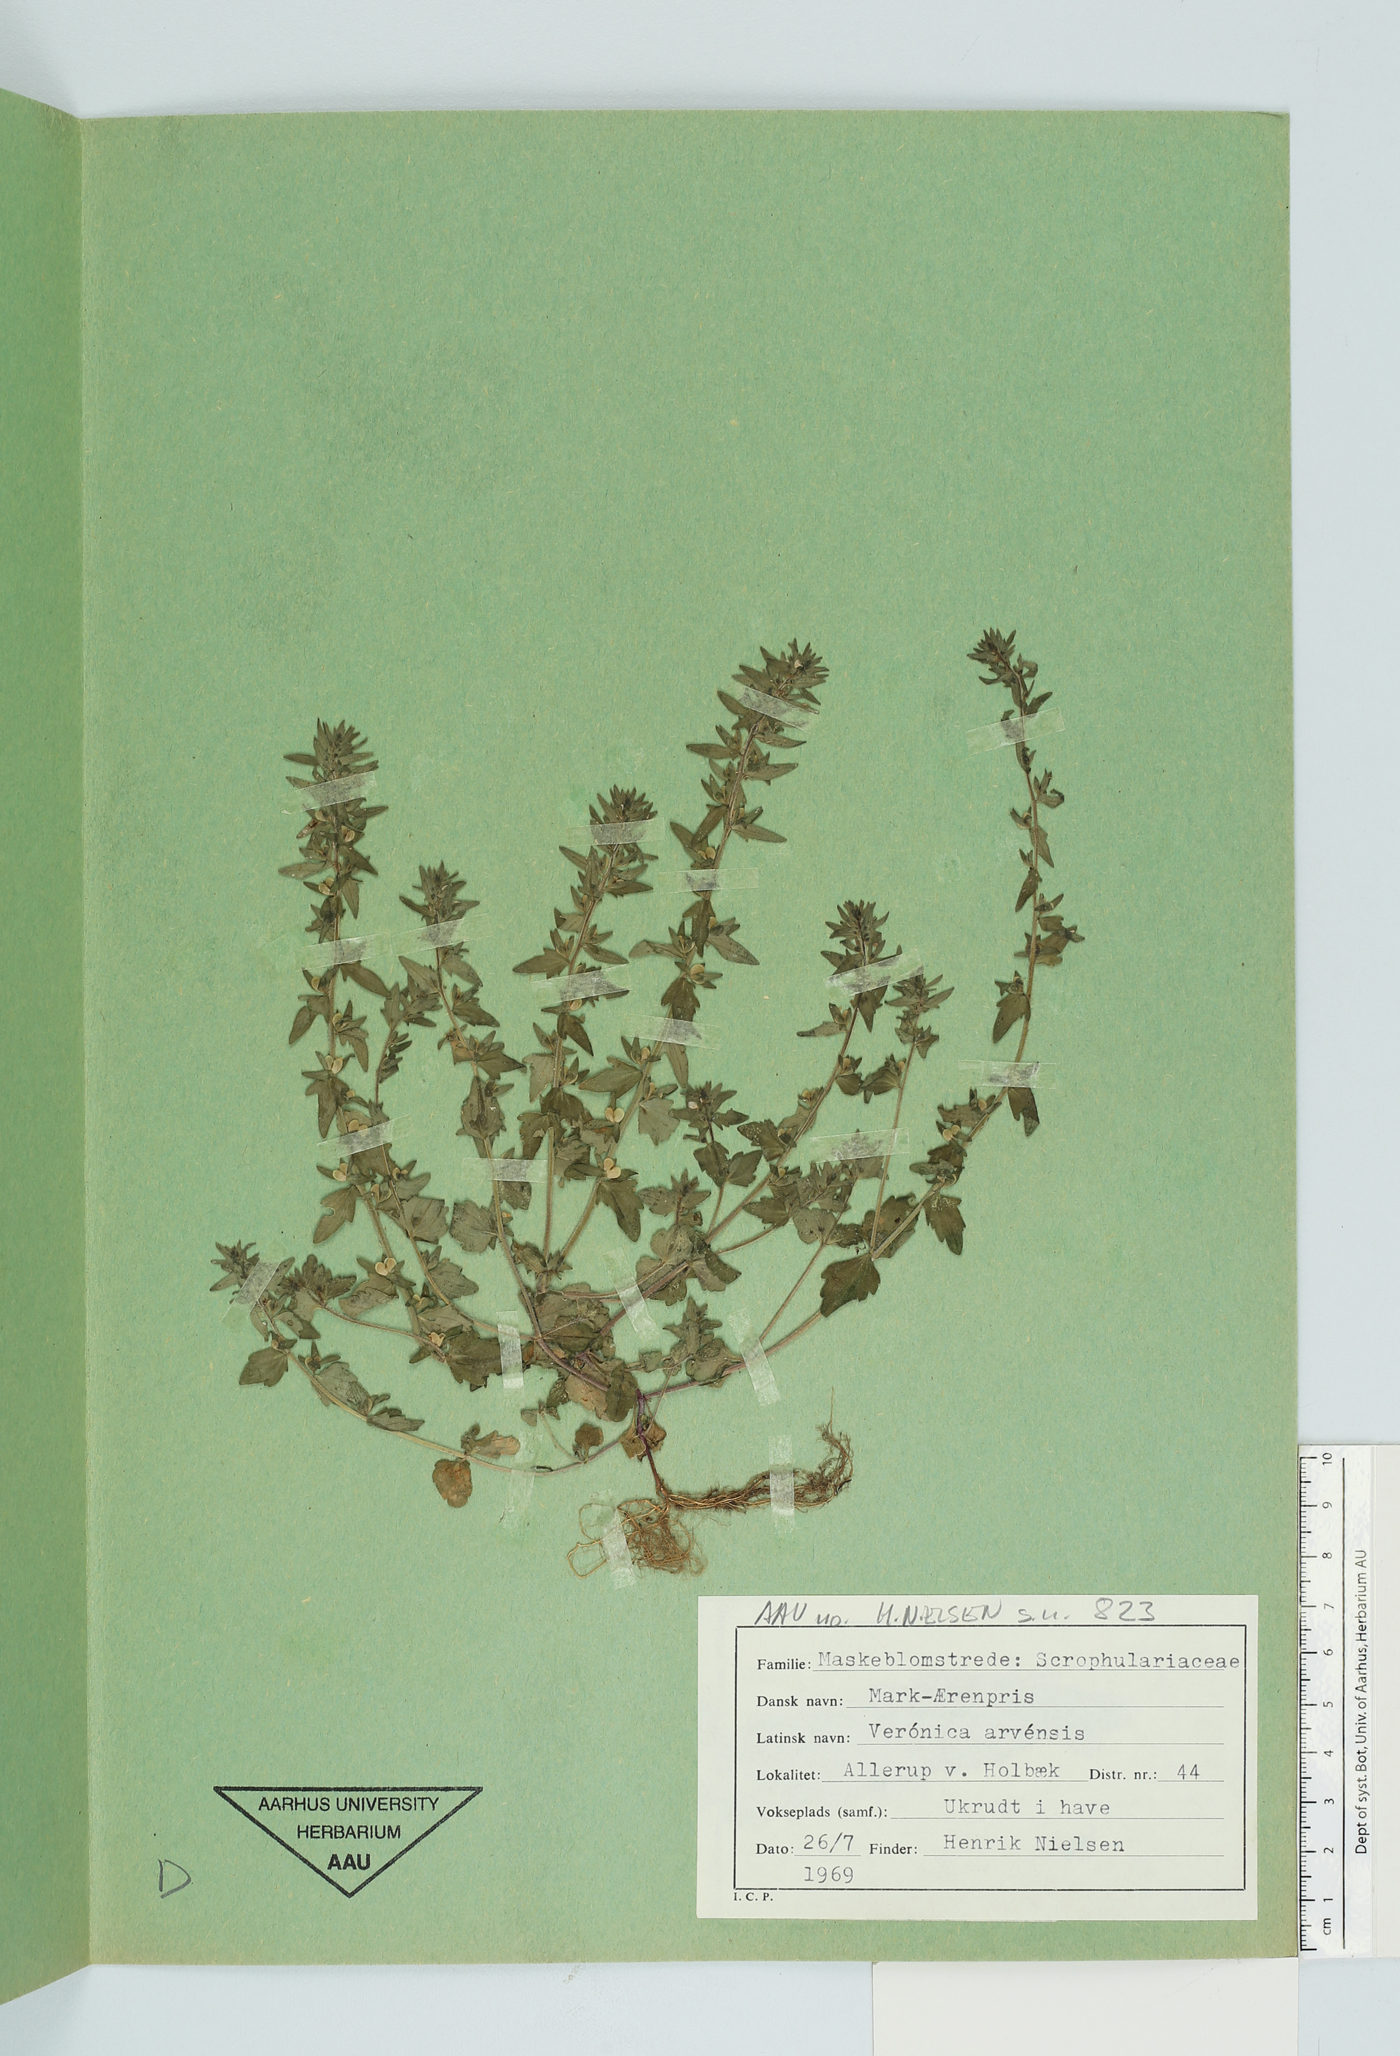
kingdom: Plantae
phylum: Tracheophyta
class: Magnoliopsida
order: Lamiales
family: Plantaginaceae
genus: Veronica
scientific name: Veronica arvensis
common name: Corn speedwell
